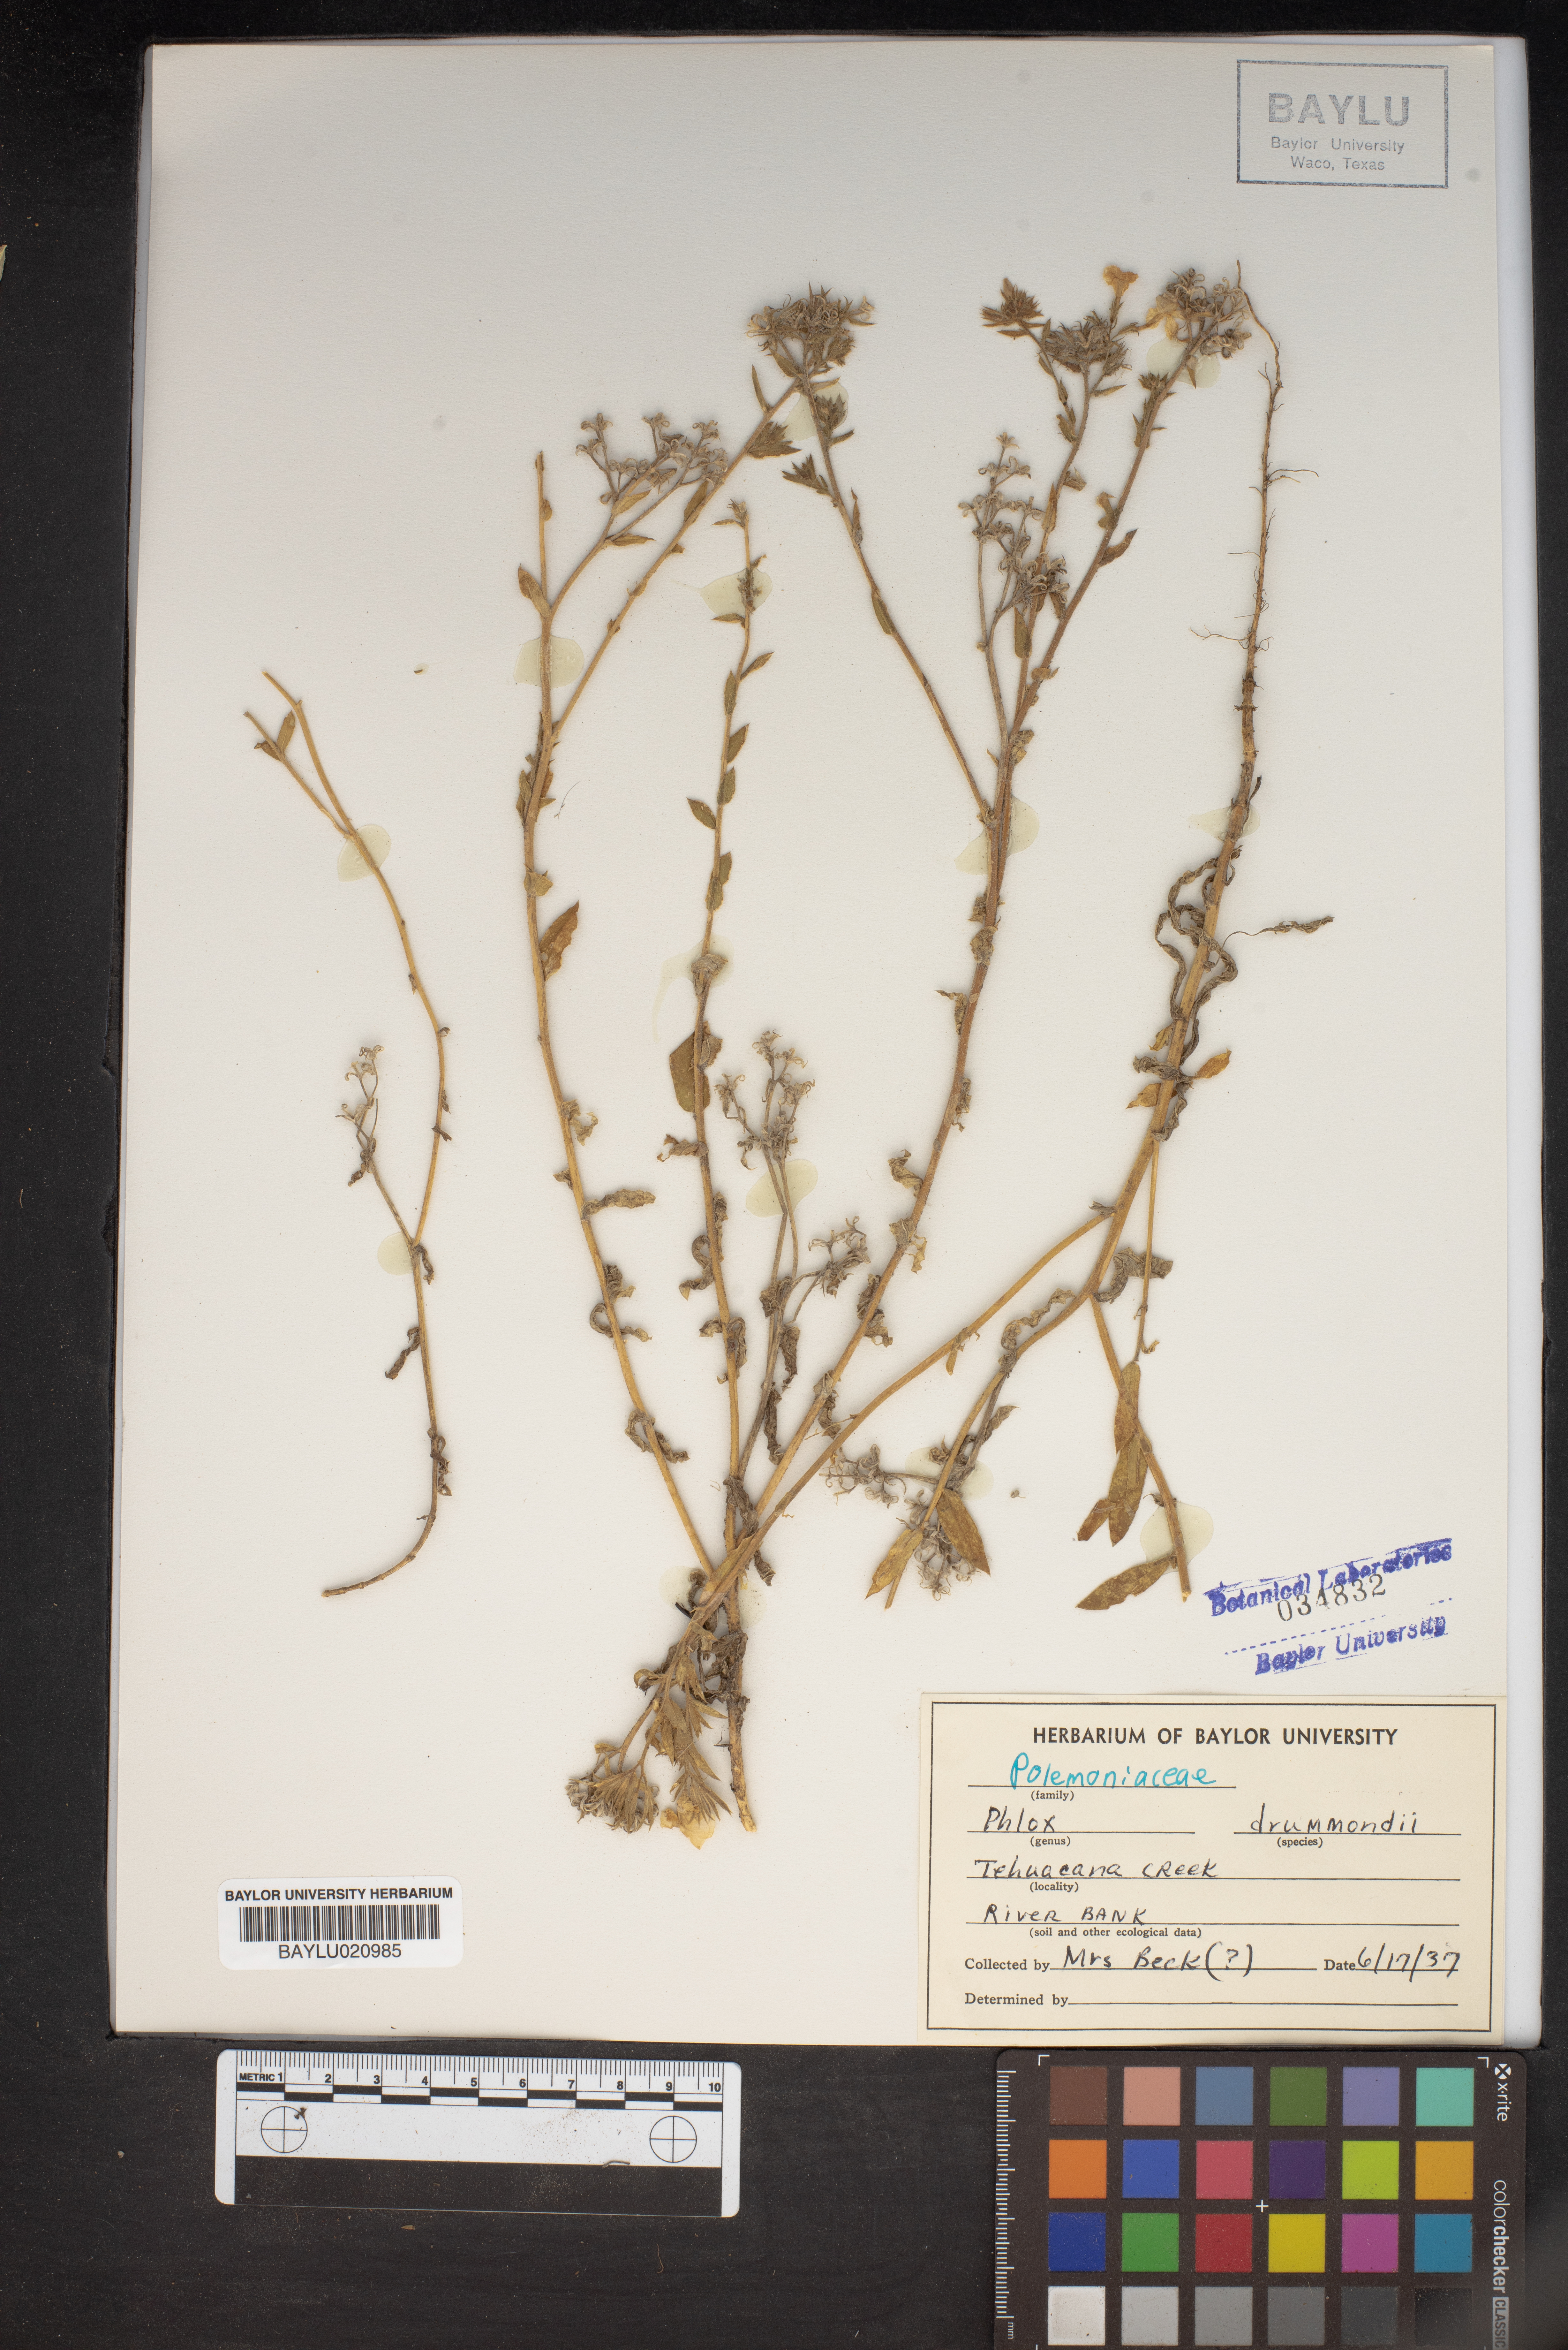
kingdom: Plantae
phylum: Tracheophyta
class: Magnoliopsida
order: Ericales
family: Polemoniaceae
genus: Phlox
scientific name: Phlox drummondii
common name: Drummond's phlox
